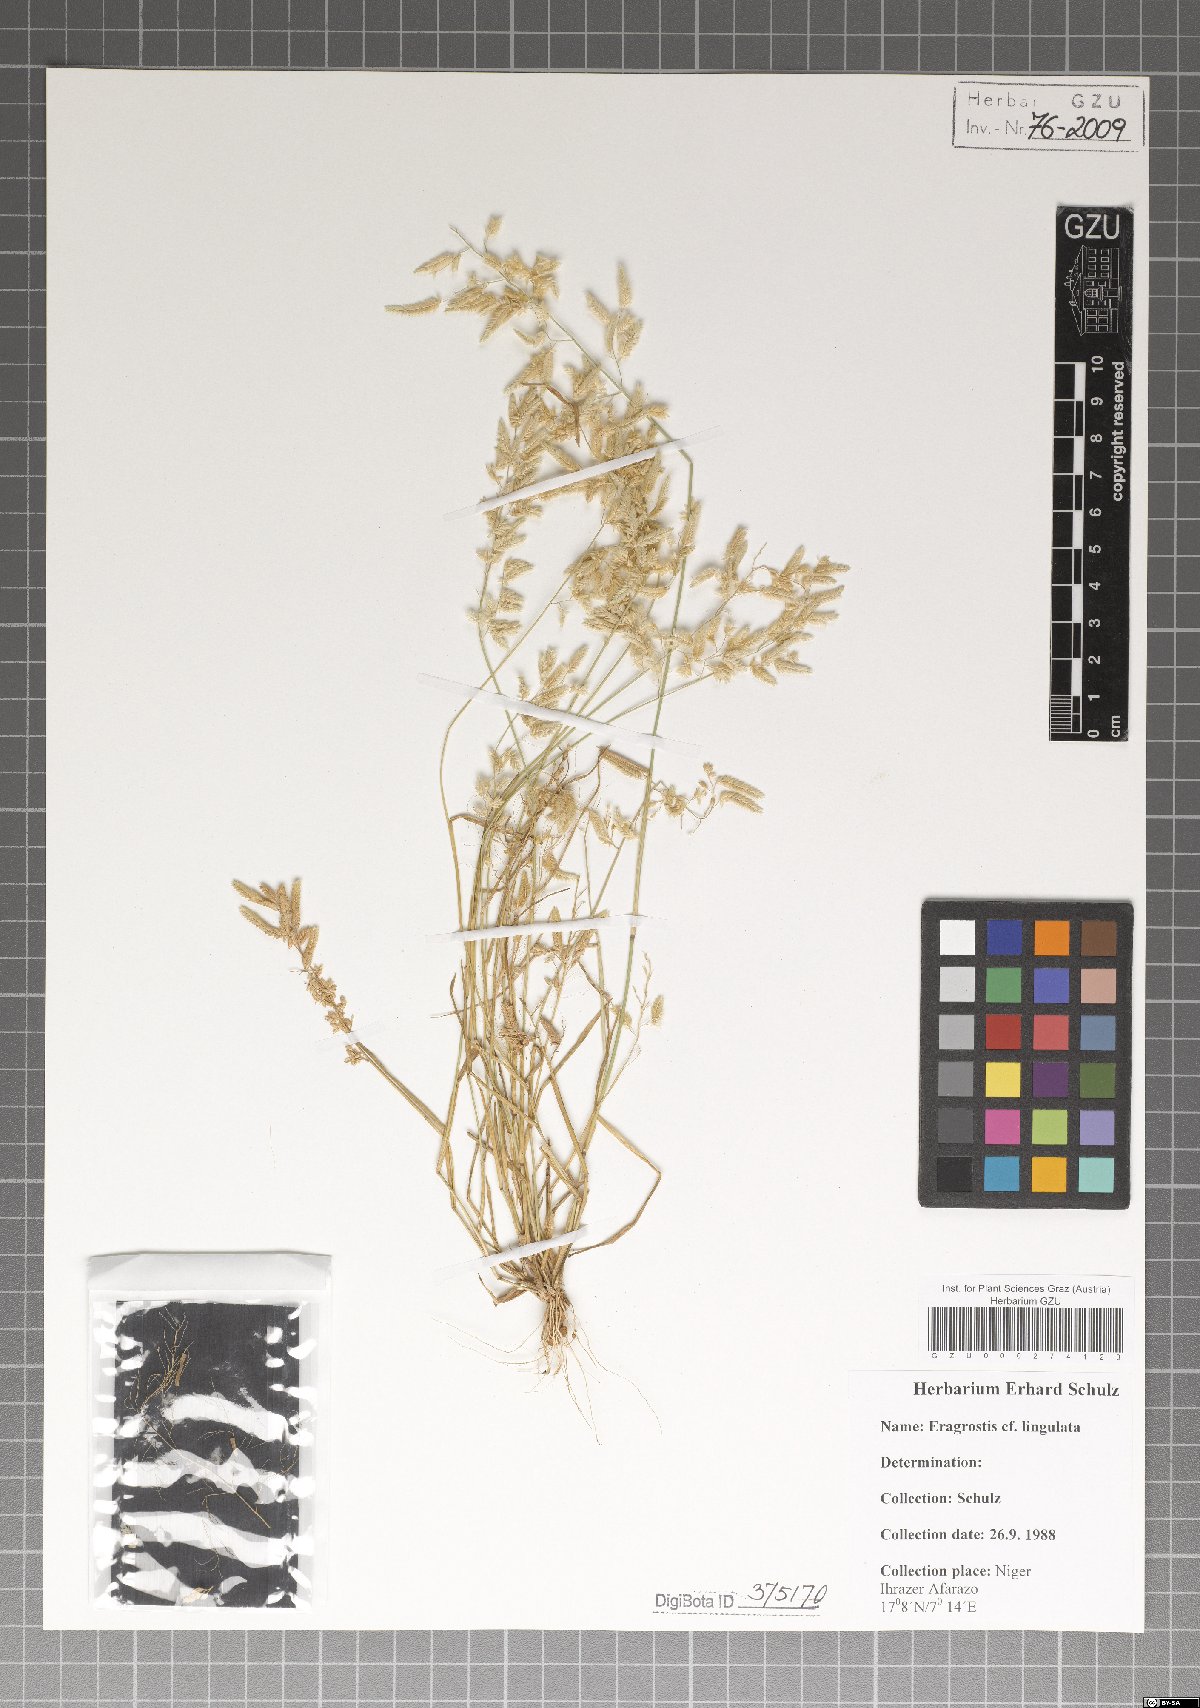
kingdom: Plantae
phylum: Tracheophyta
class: Liliopsida
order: Poales
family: Poaceae
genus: Eragrostis
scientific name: Eragrostis lingulata
